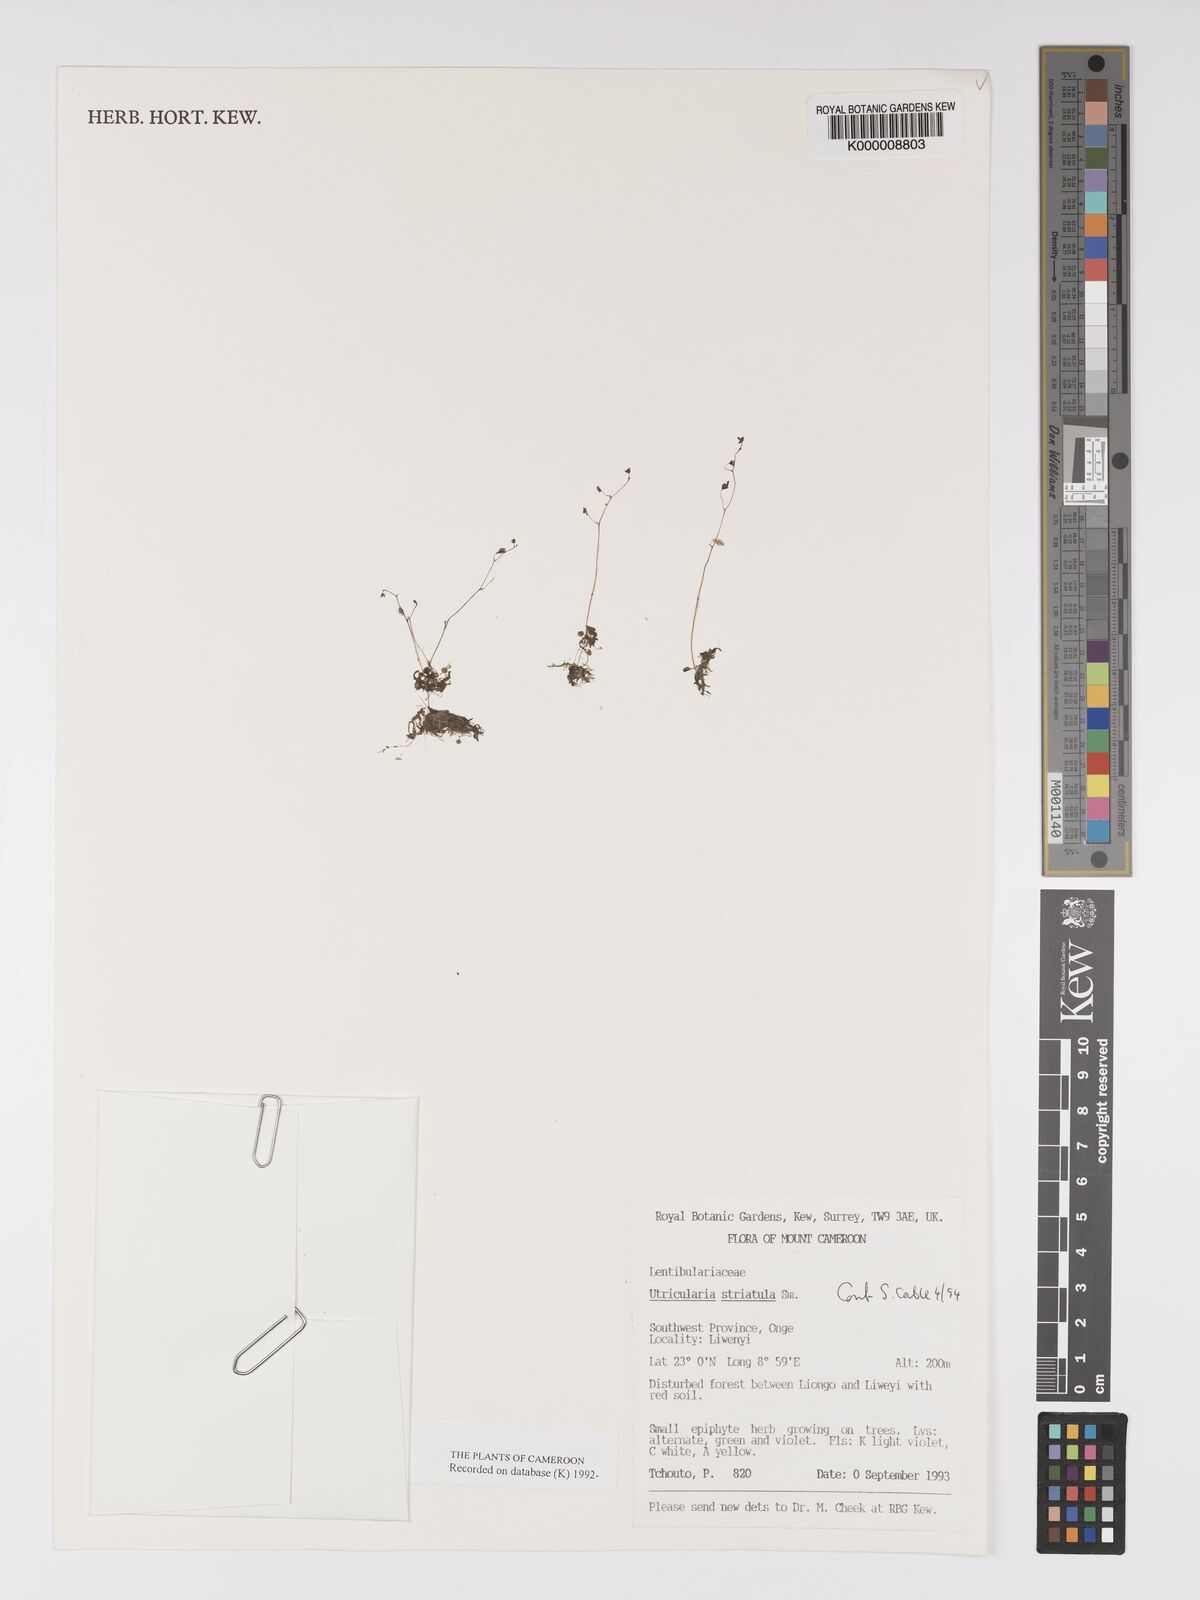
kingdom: Plantae
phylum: Tracheophyta
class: Magnoliopsida
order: Lamiales
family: Lentibulariaceae
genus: Utricularia
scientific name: Utricularia striatula
